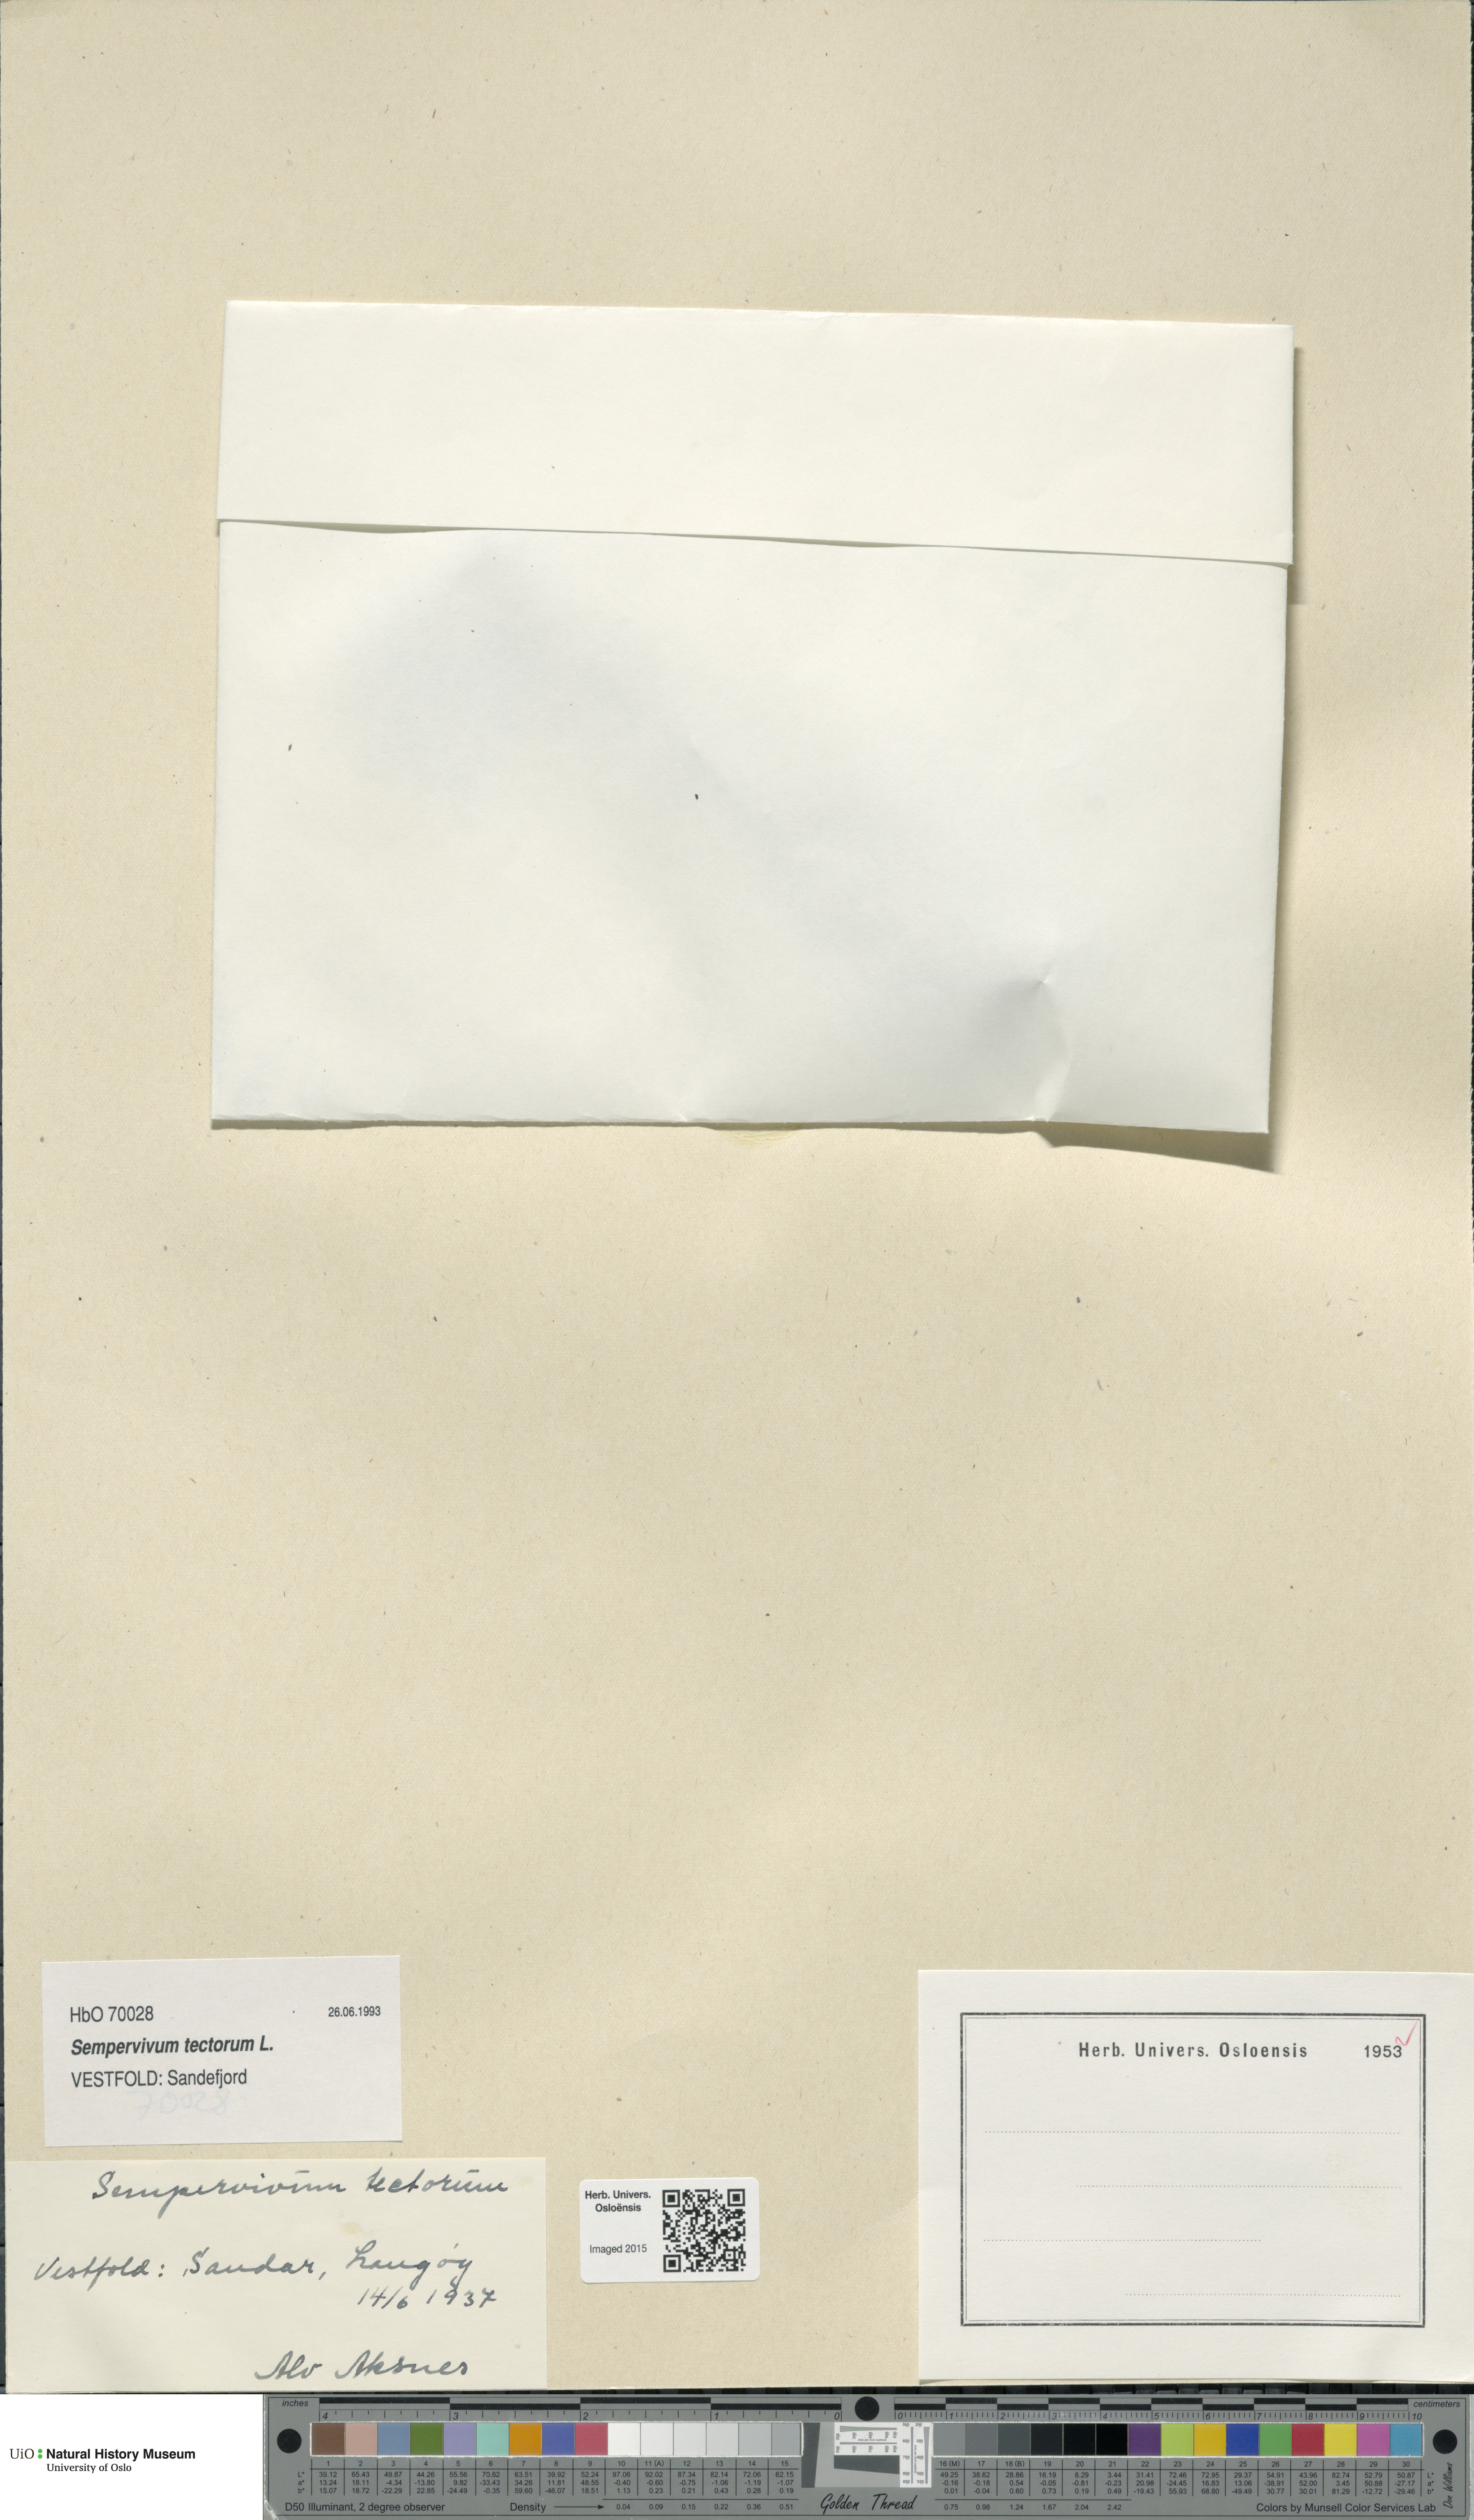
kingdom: Plantae
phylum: Tracheophyta
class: Magnoliopsida
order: Saxifragales
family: Crassulaceae
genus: Sempervivum
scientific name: Sempervivum tectorum
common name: House-leek
